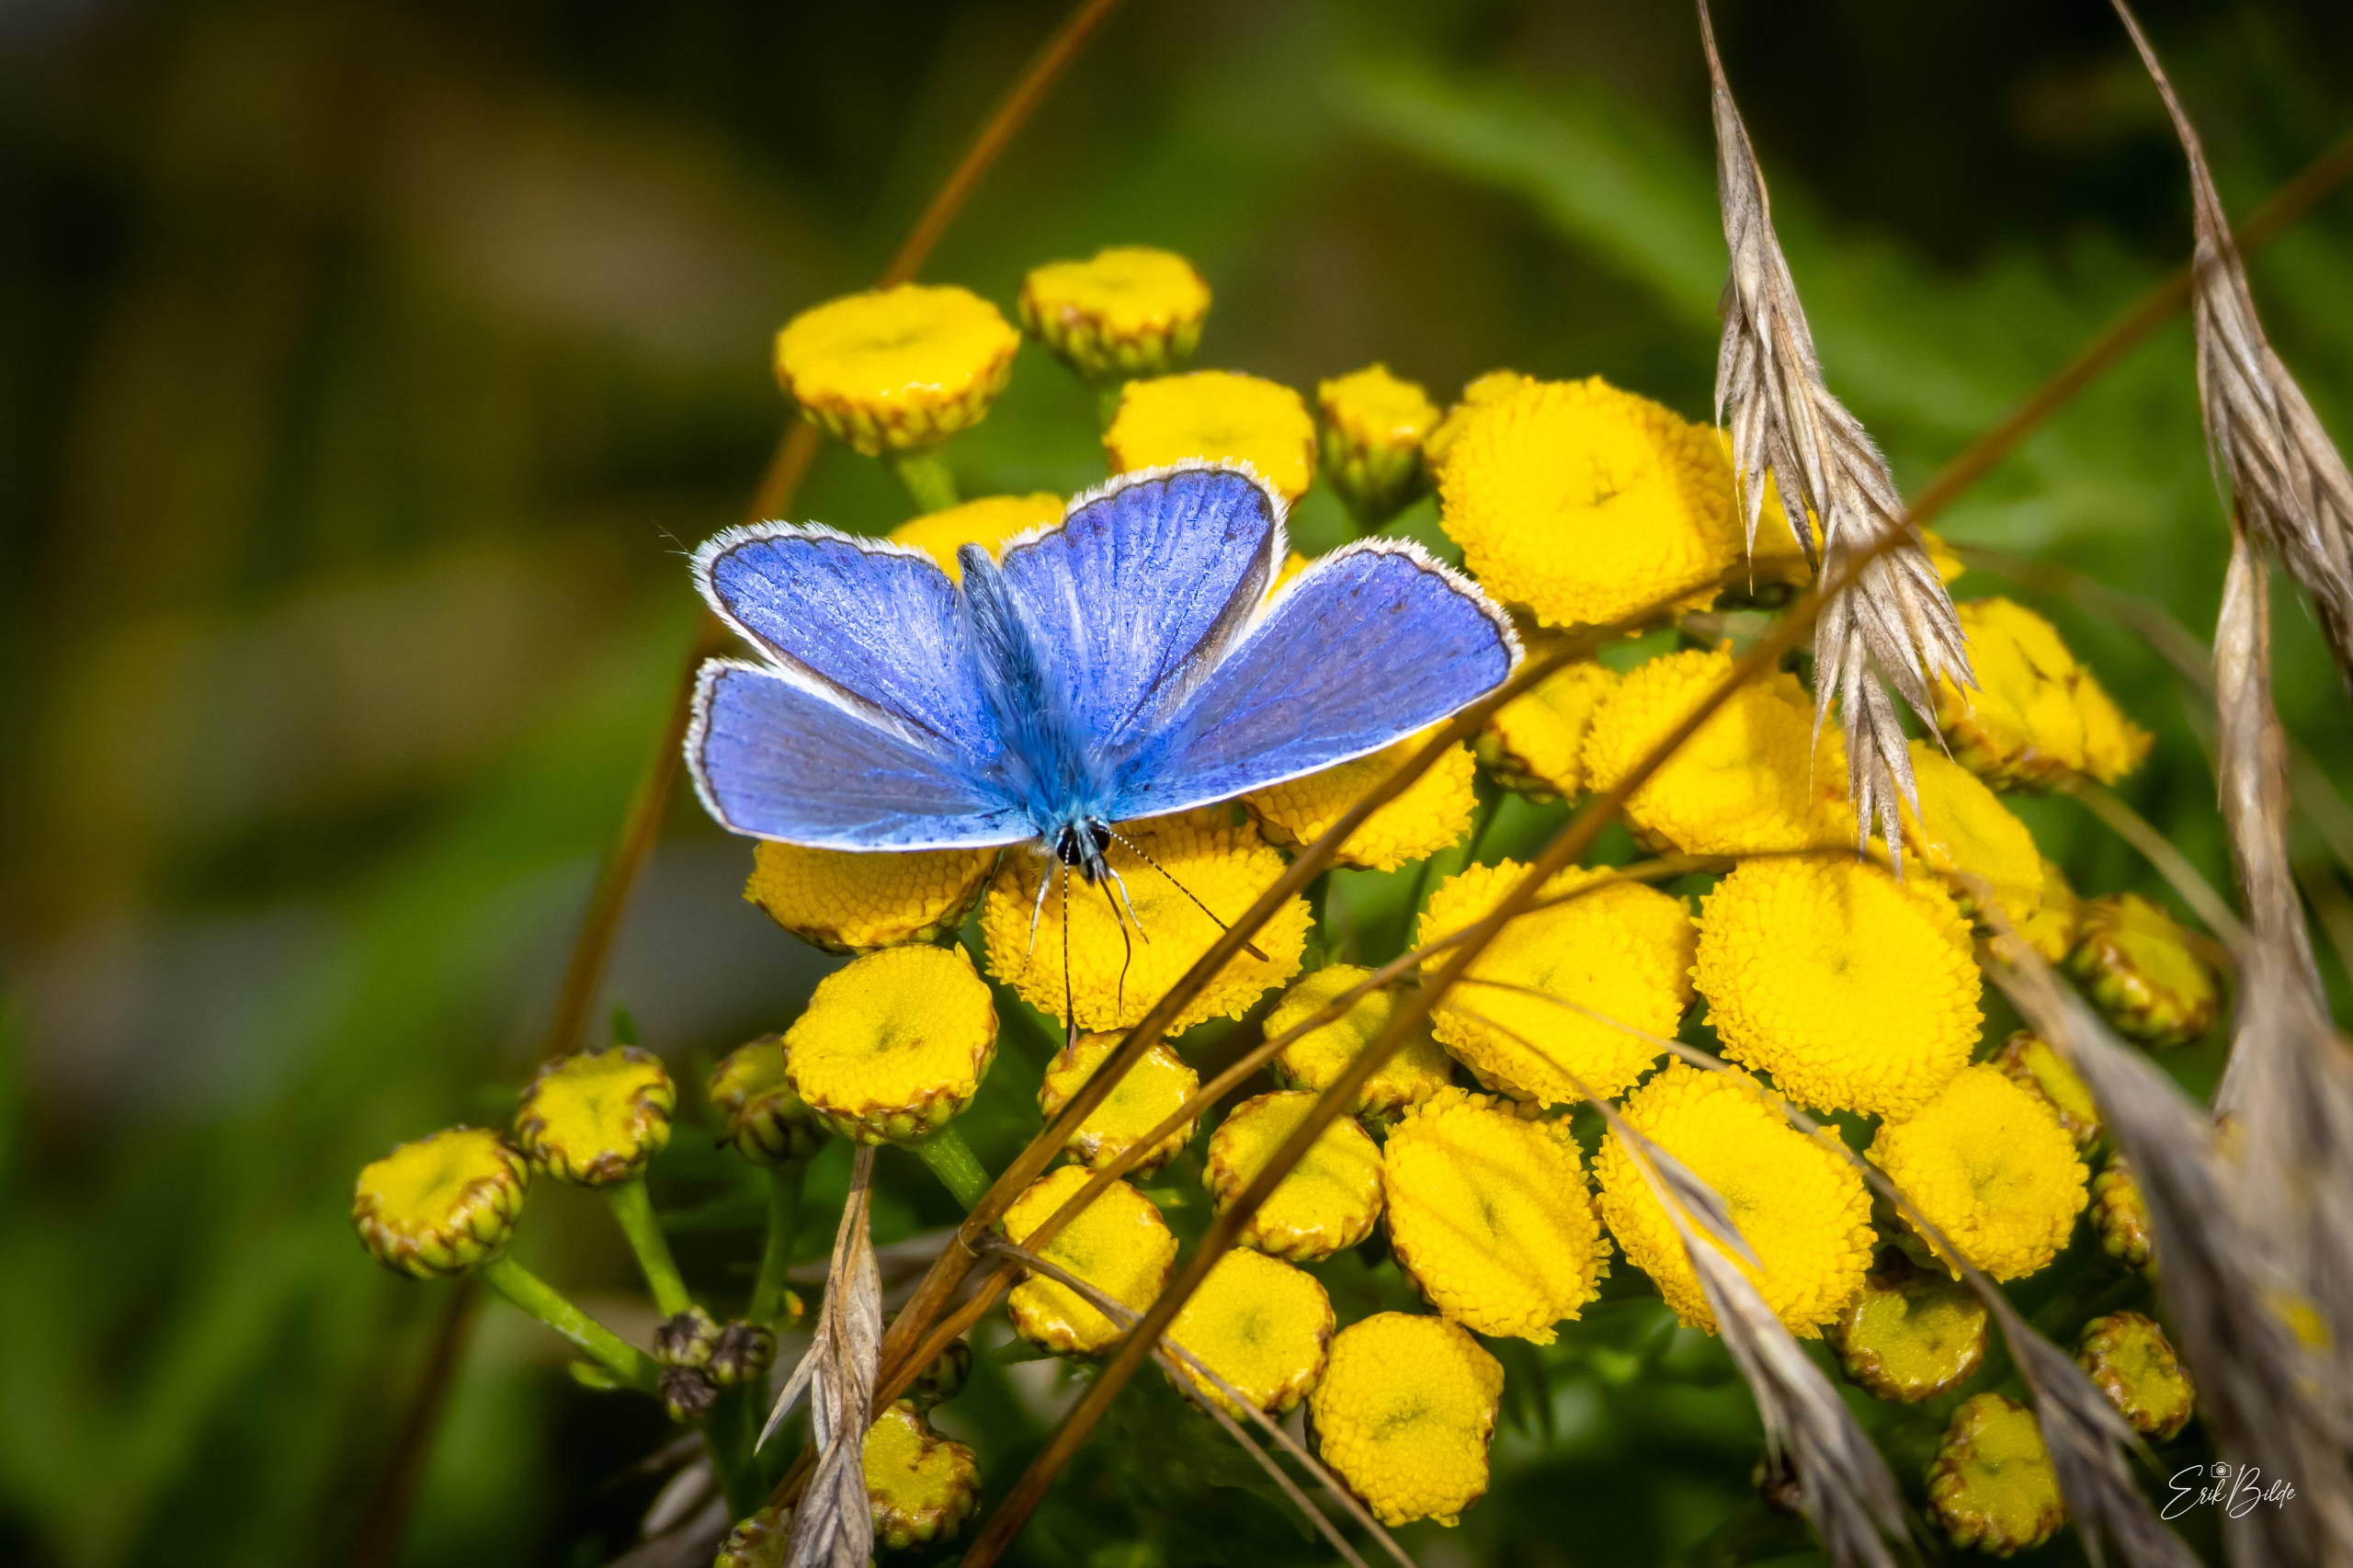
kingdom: Animalia
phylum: Arthropoda
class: Insecta
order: Lepidoptera
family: Lycaenidae
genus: Polyommatus
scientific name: Polyommatus icarus
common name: Almindelig blåfugl
